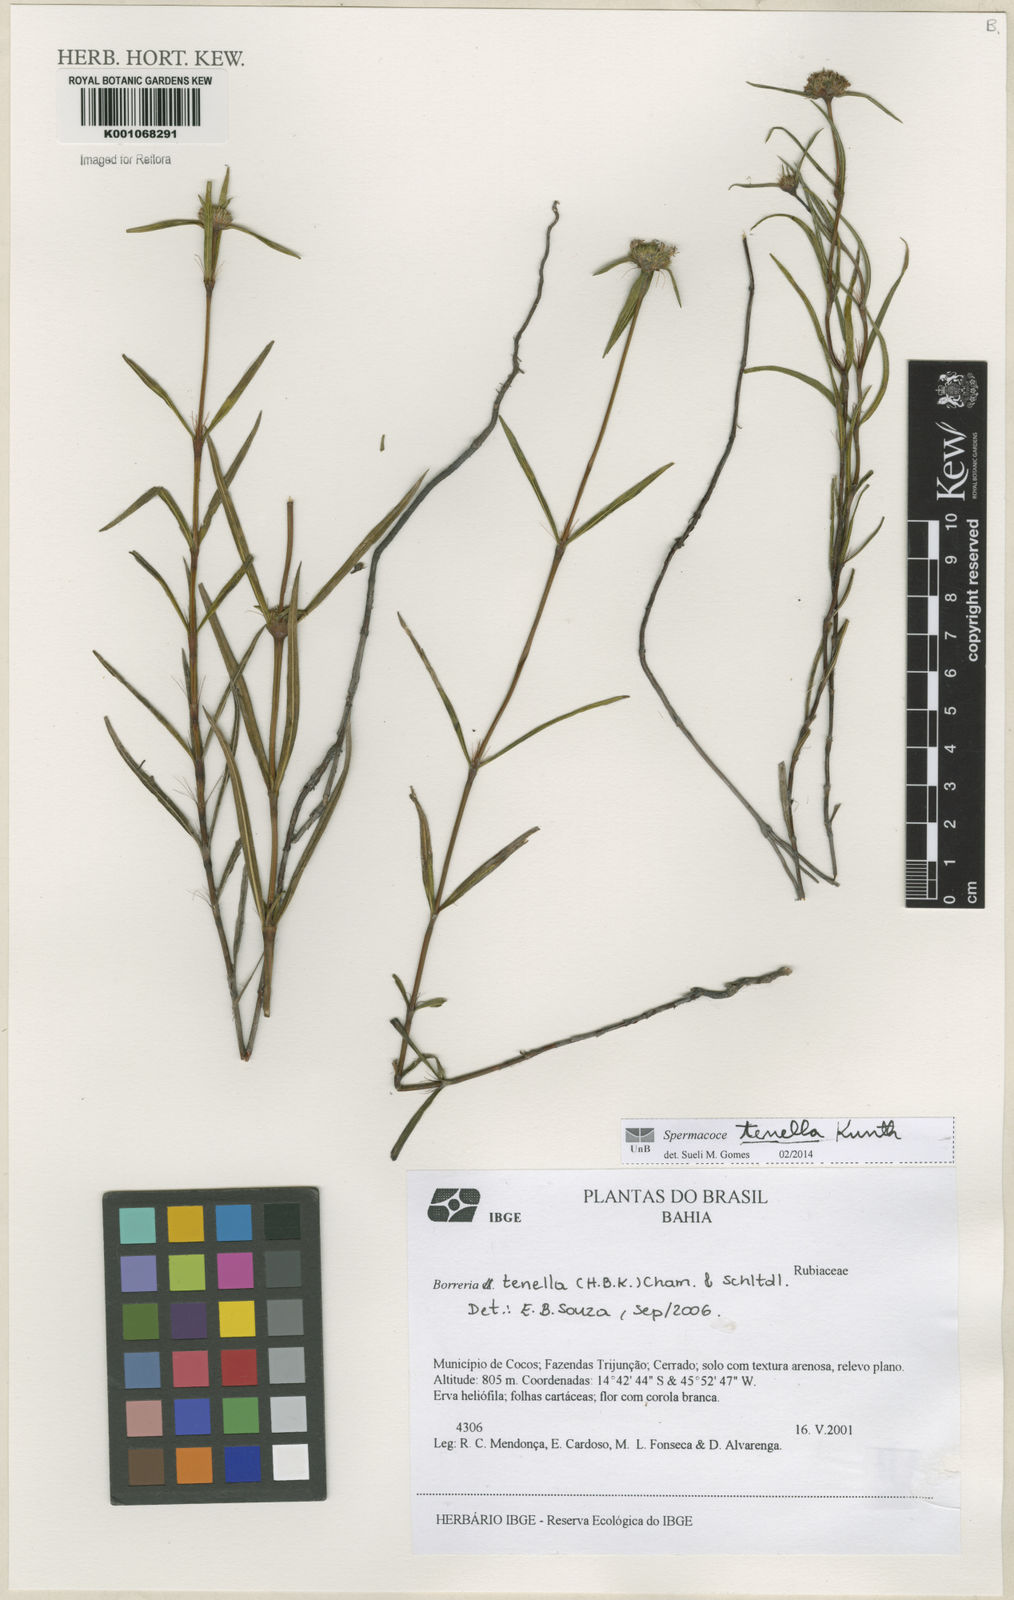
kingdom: Plantae
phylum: Tracheophyta
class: Magnoliopsida
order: Gentianales
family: Rubiaceae
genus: Spermacoce
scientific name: Spermacoce orinocensis
